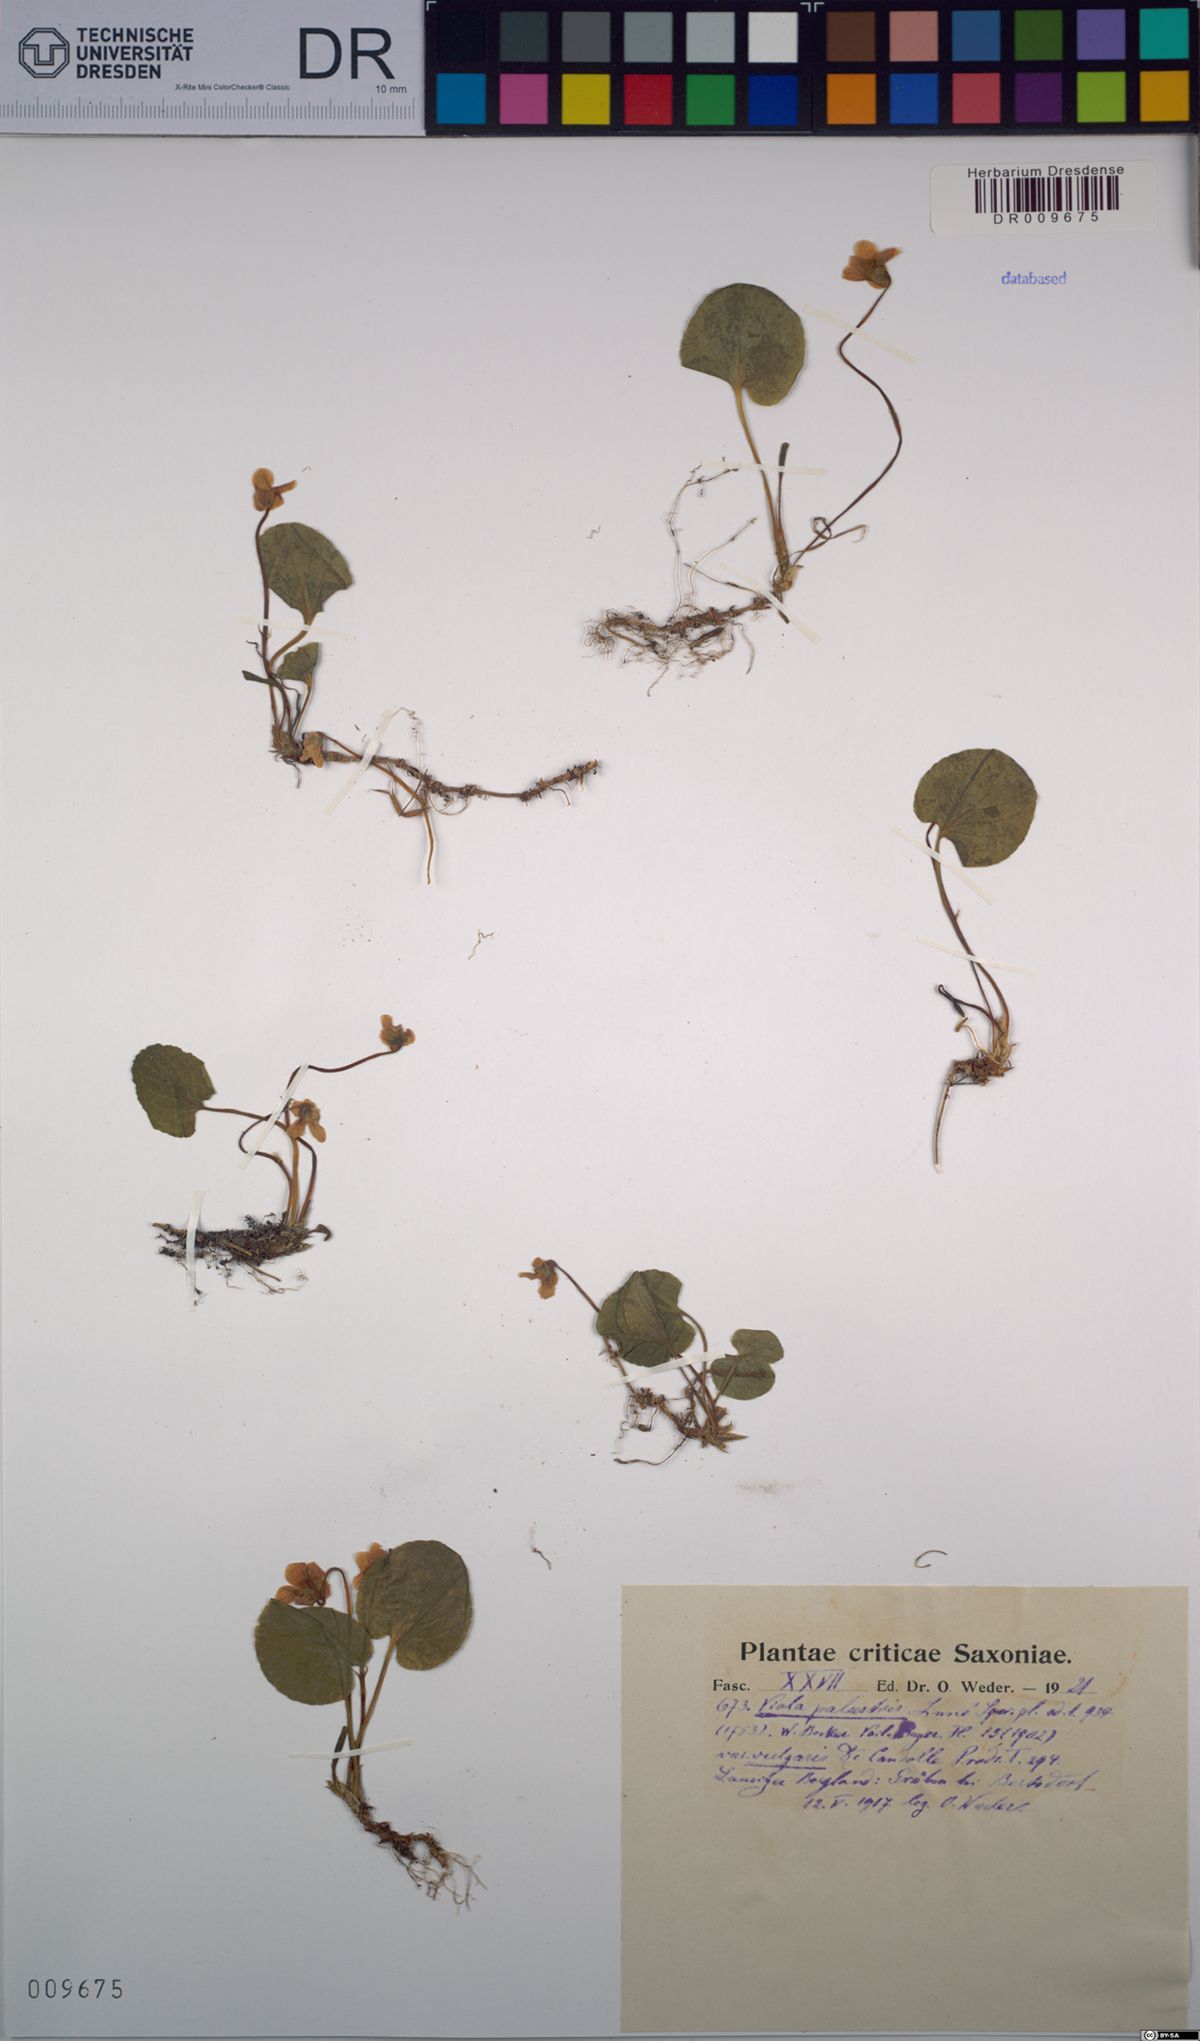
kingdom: Plantae
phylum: Tracheophyta
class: Magnoliopsida
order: Malpighiales
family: Violaceae
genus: Viola
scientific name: Viola palustris
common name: Marsh violet
